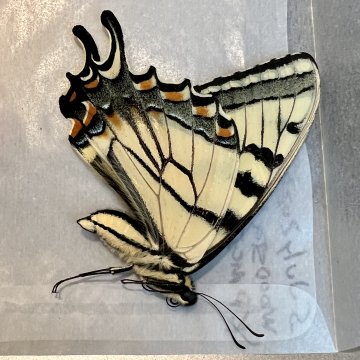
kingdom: Animalia
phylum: Arthropoda
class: Insecta
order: Lepidoptera
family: Papilionidae
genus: Pterourus
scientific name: Pterourus canadensis
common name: Canadian Tiger Swallowtail
